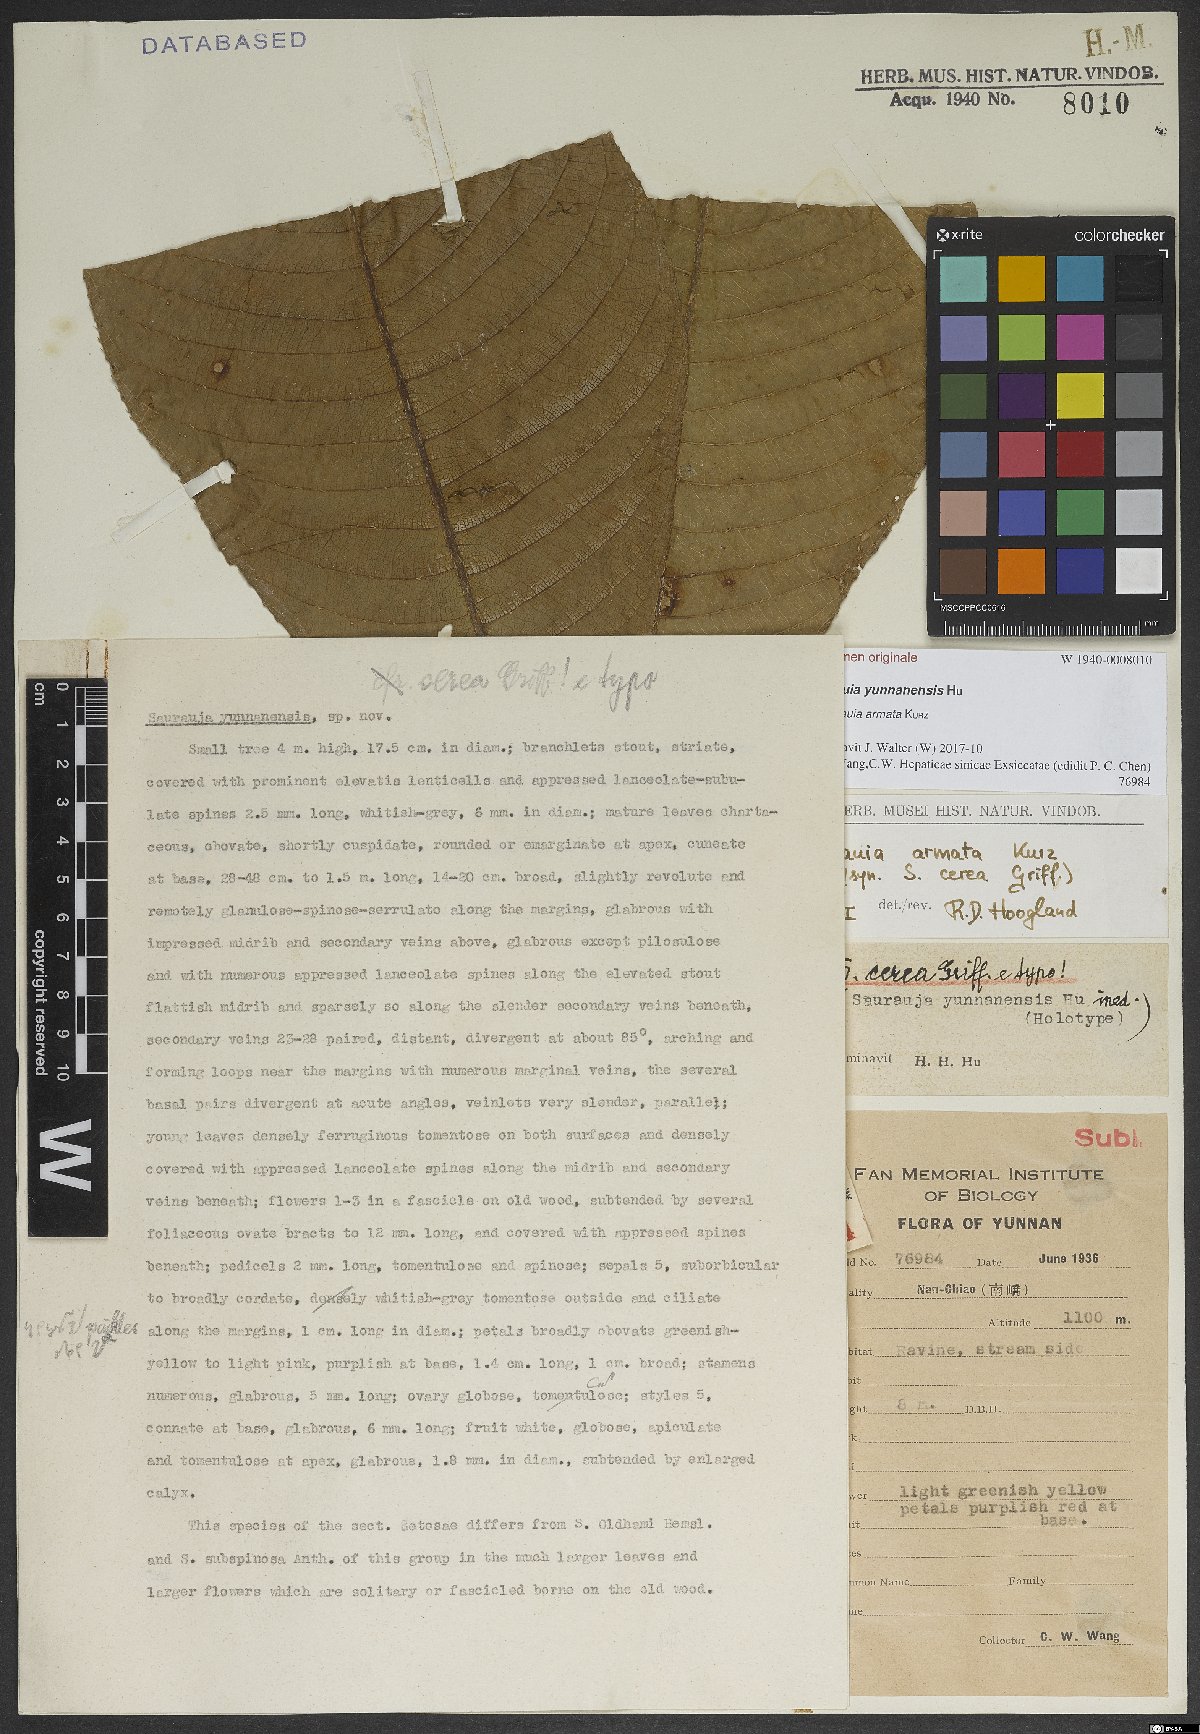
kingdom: Plantae
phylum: Tracheophyta
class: Magnoliopsida
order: Ericales
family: Actinidiaceae
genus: Saurauia
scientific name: Saurauia armata
